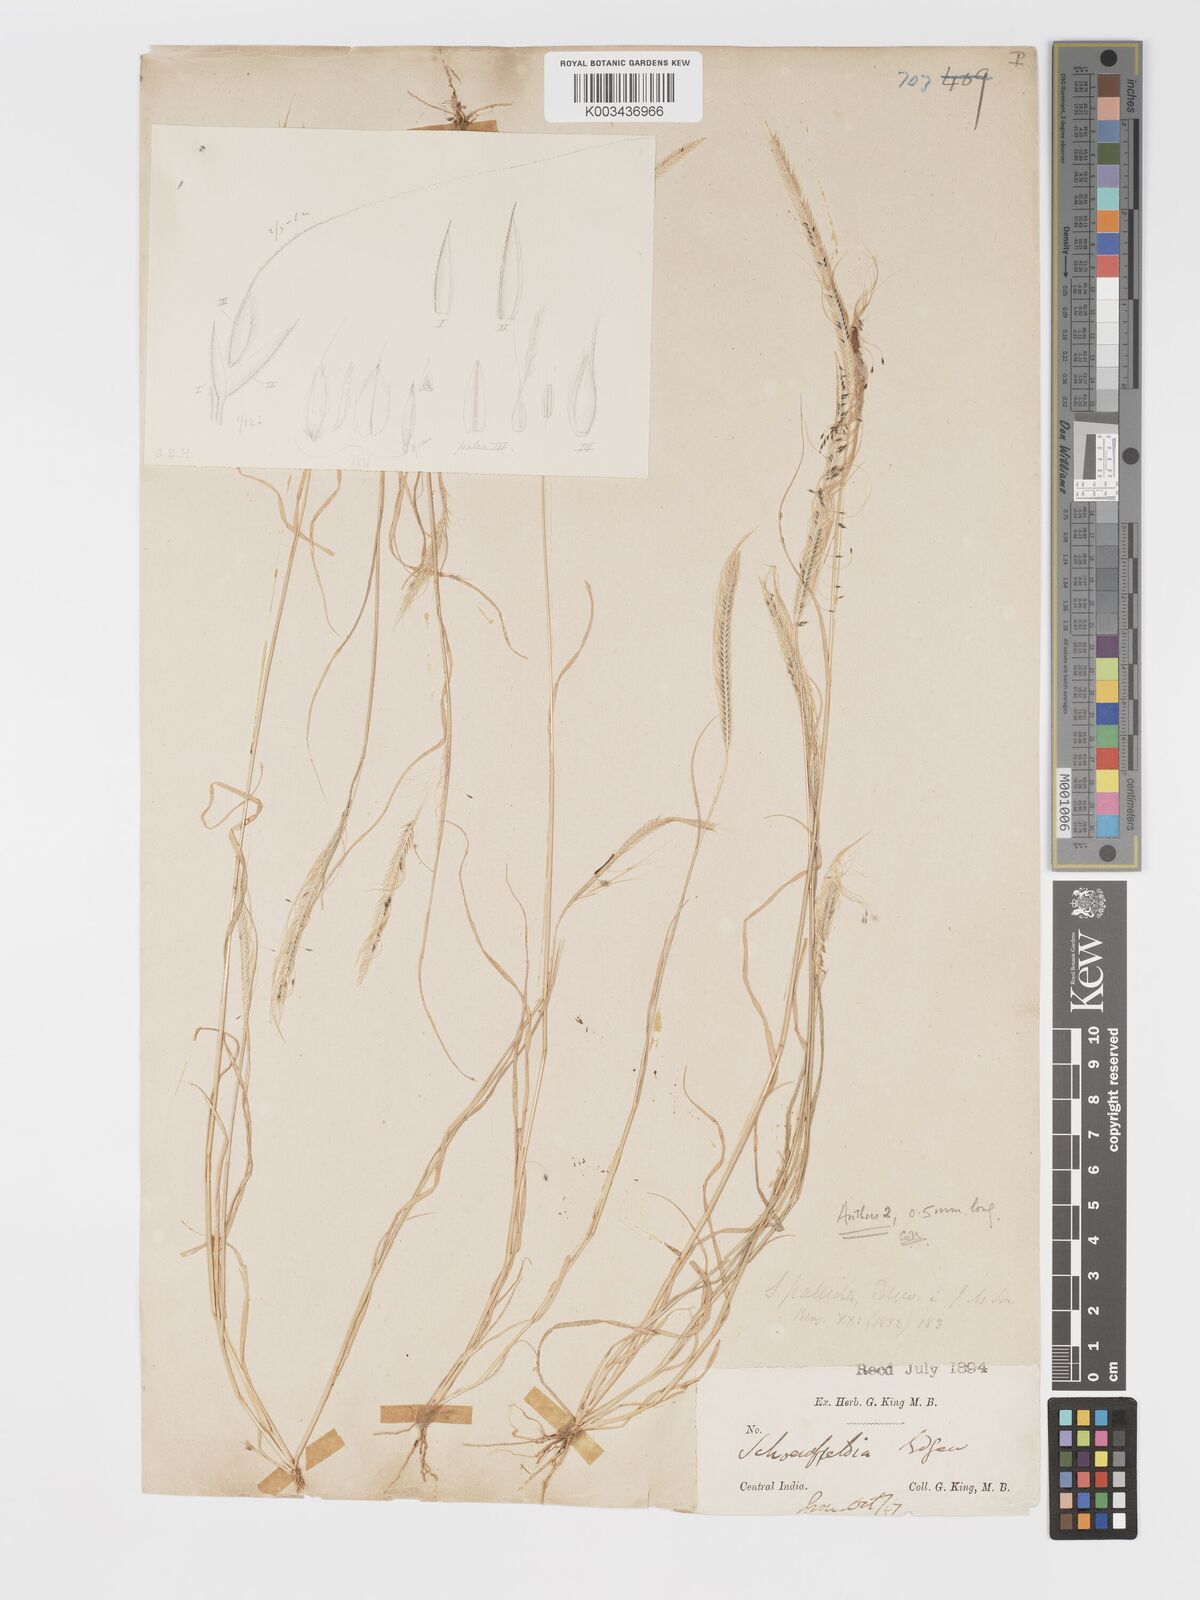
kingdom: Plantae
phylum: Tracheophyta
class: Liliopsida
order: Poales
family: Poaceae
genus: Schoenefeldia
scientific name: Schoenefeldia gracilis
